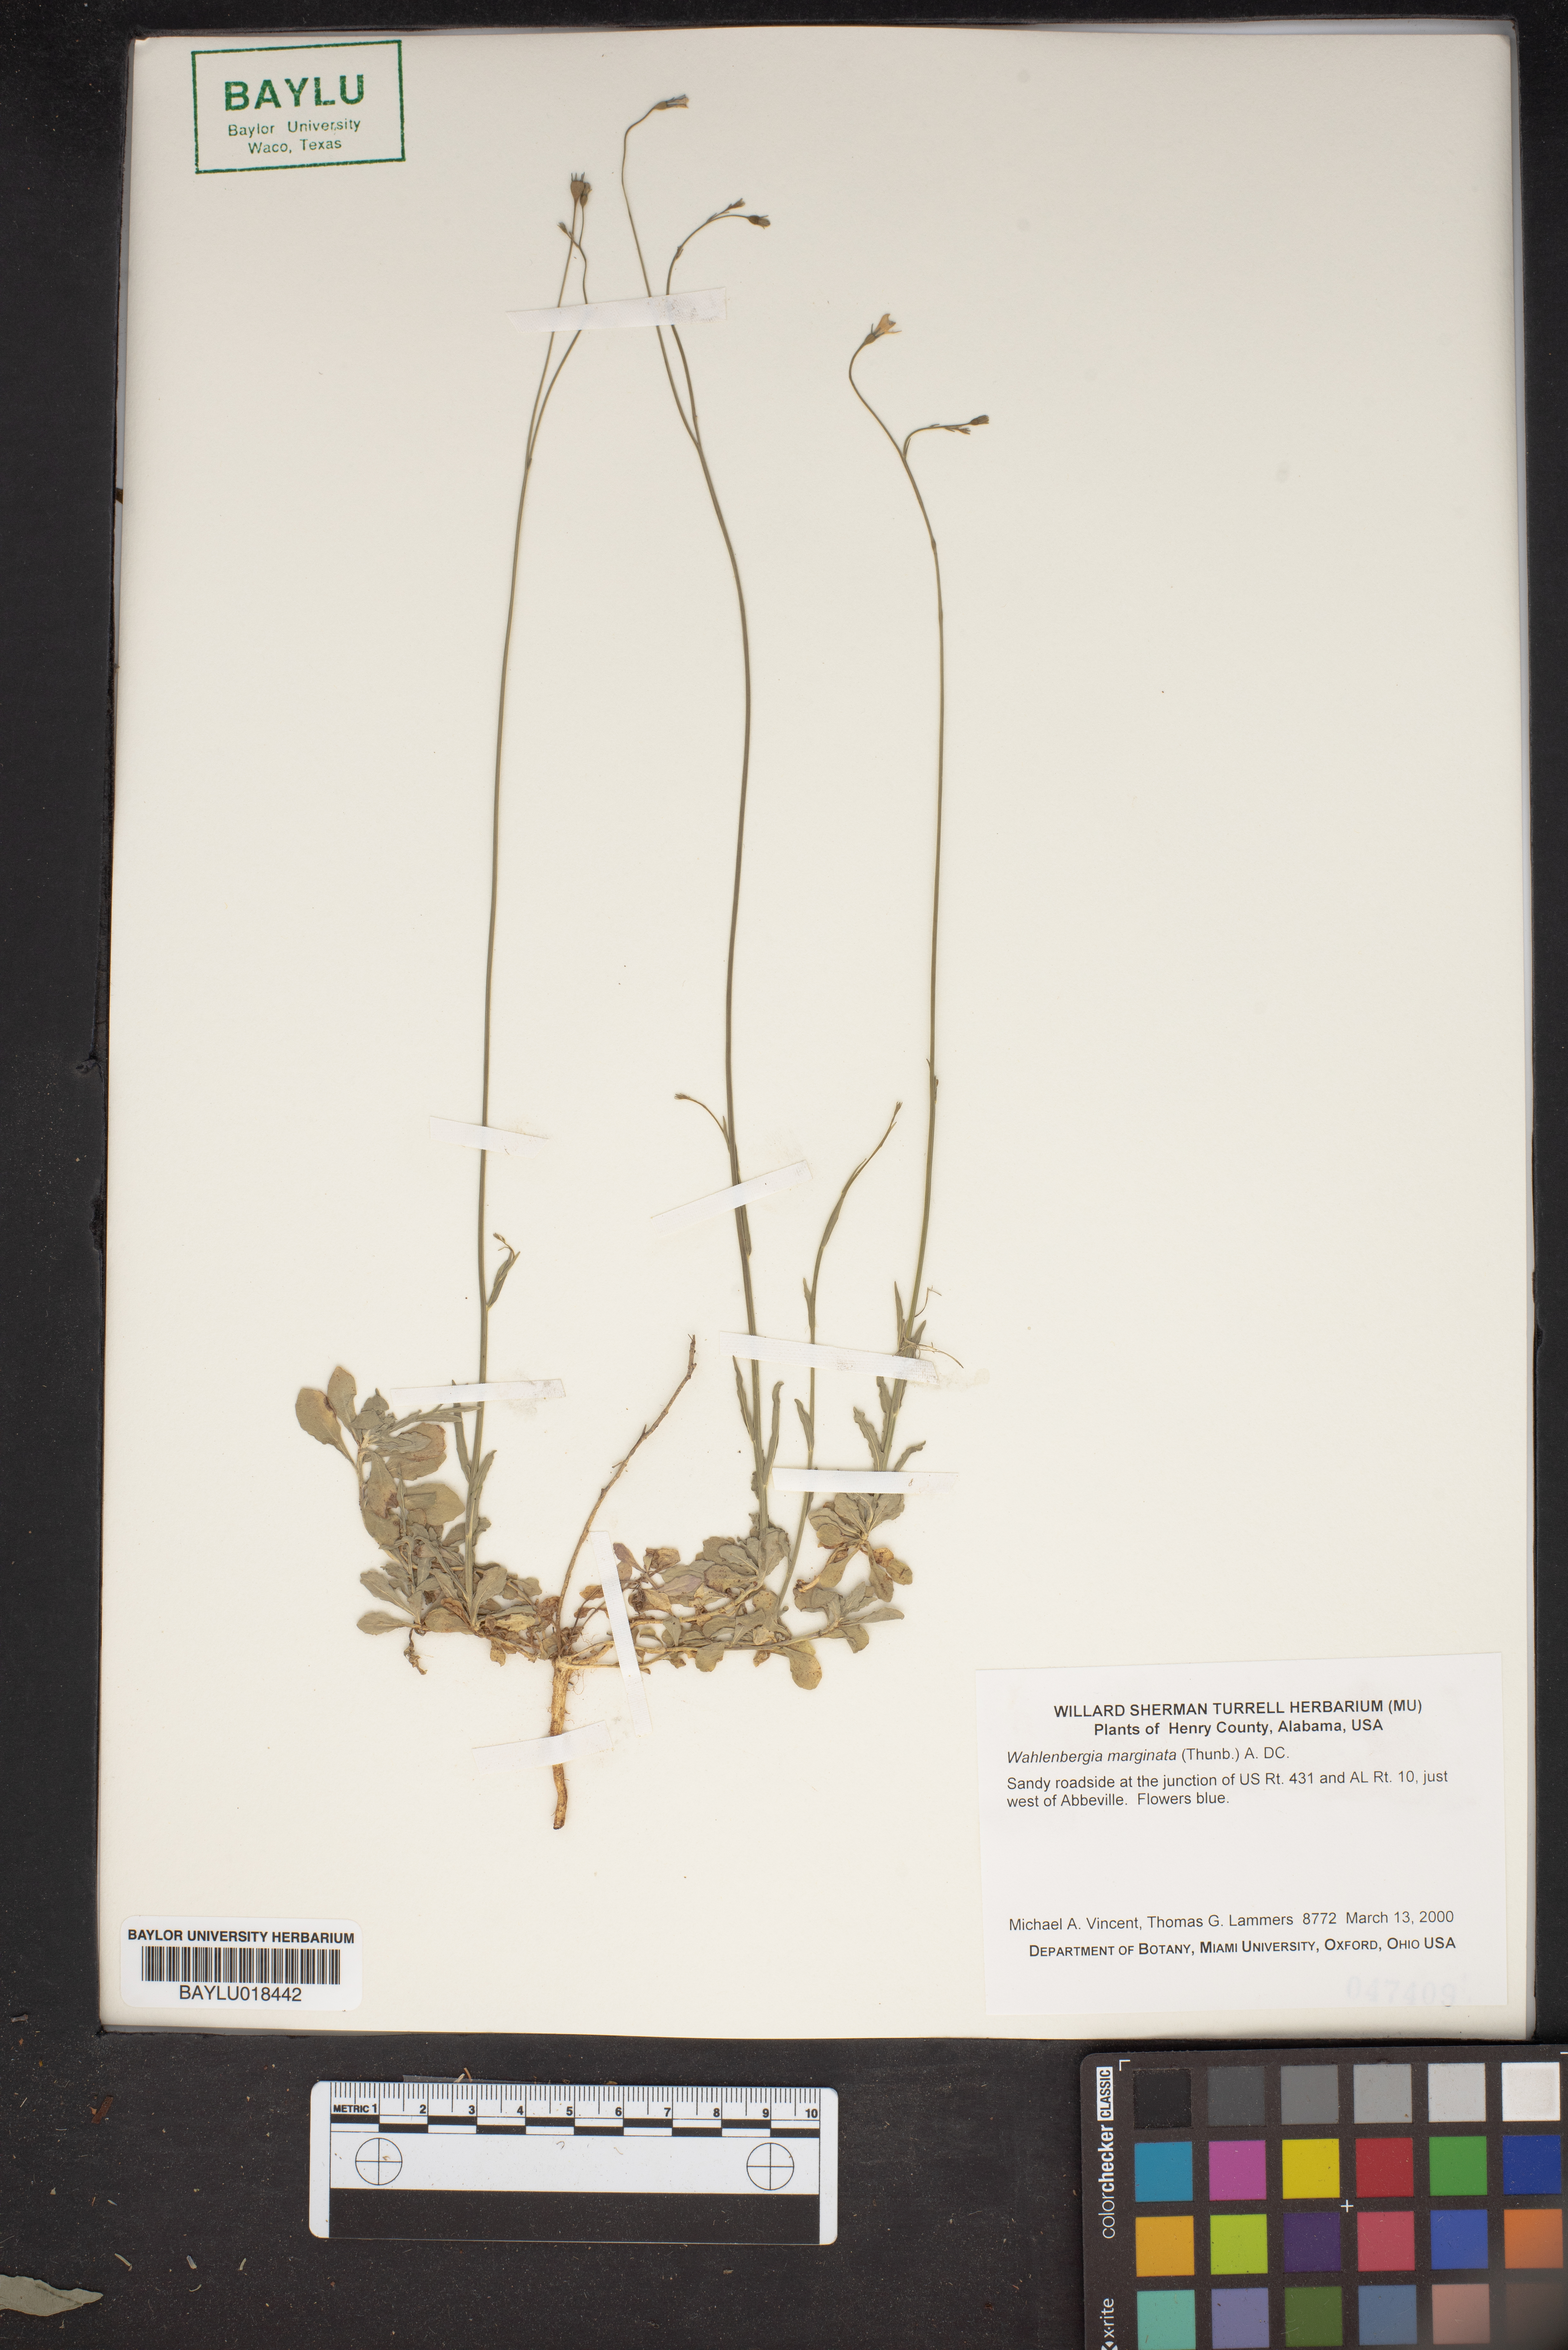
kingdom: Plantae
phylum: Tracheophyta
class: Magnoliopsida
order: Asterales
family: Campanulaceae
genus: Wahlenbergia
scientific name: Wahlenbergia marginata
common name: Southern rockbell
